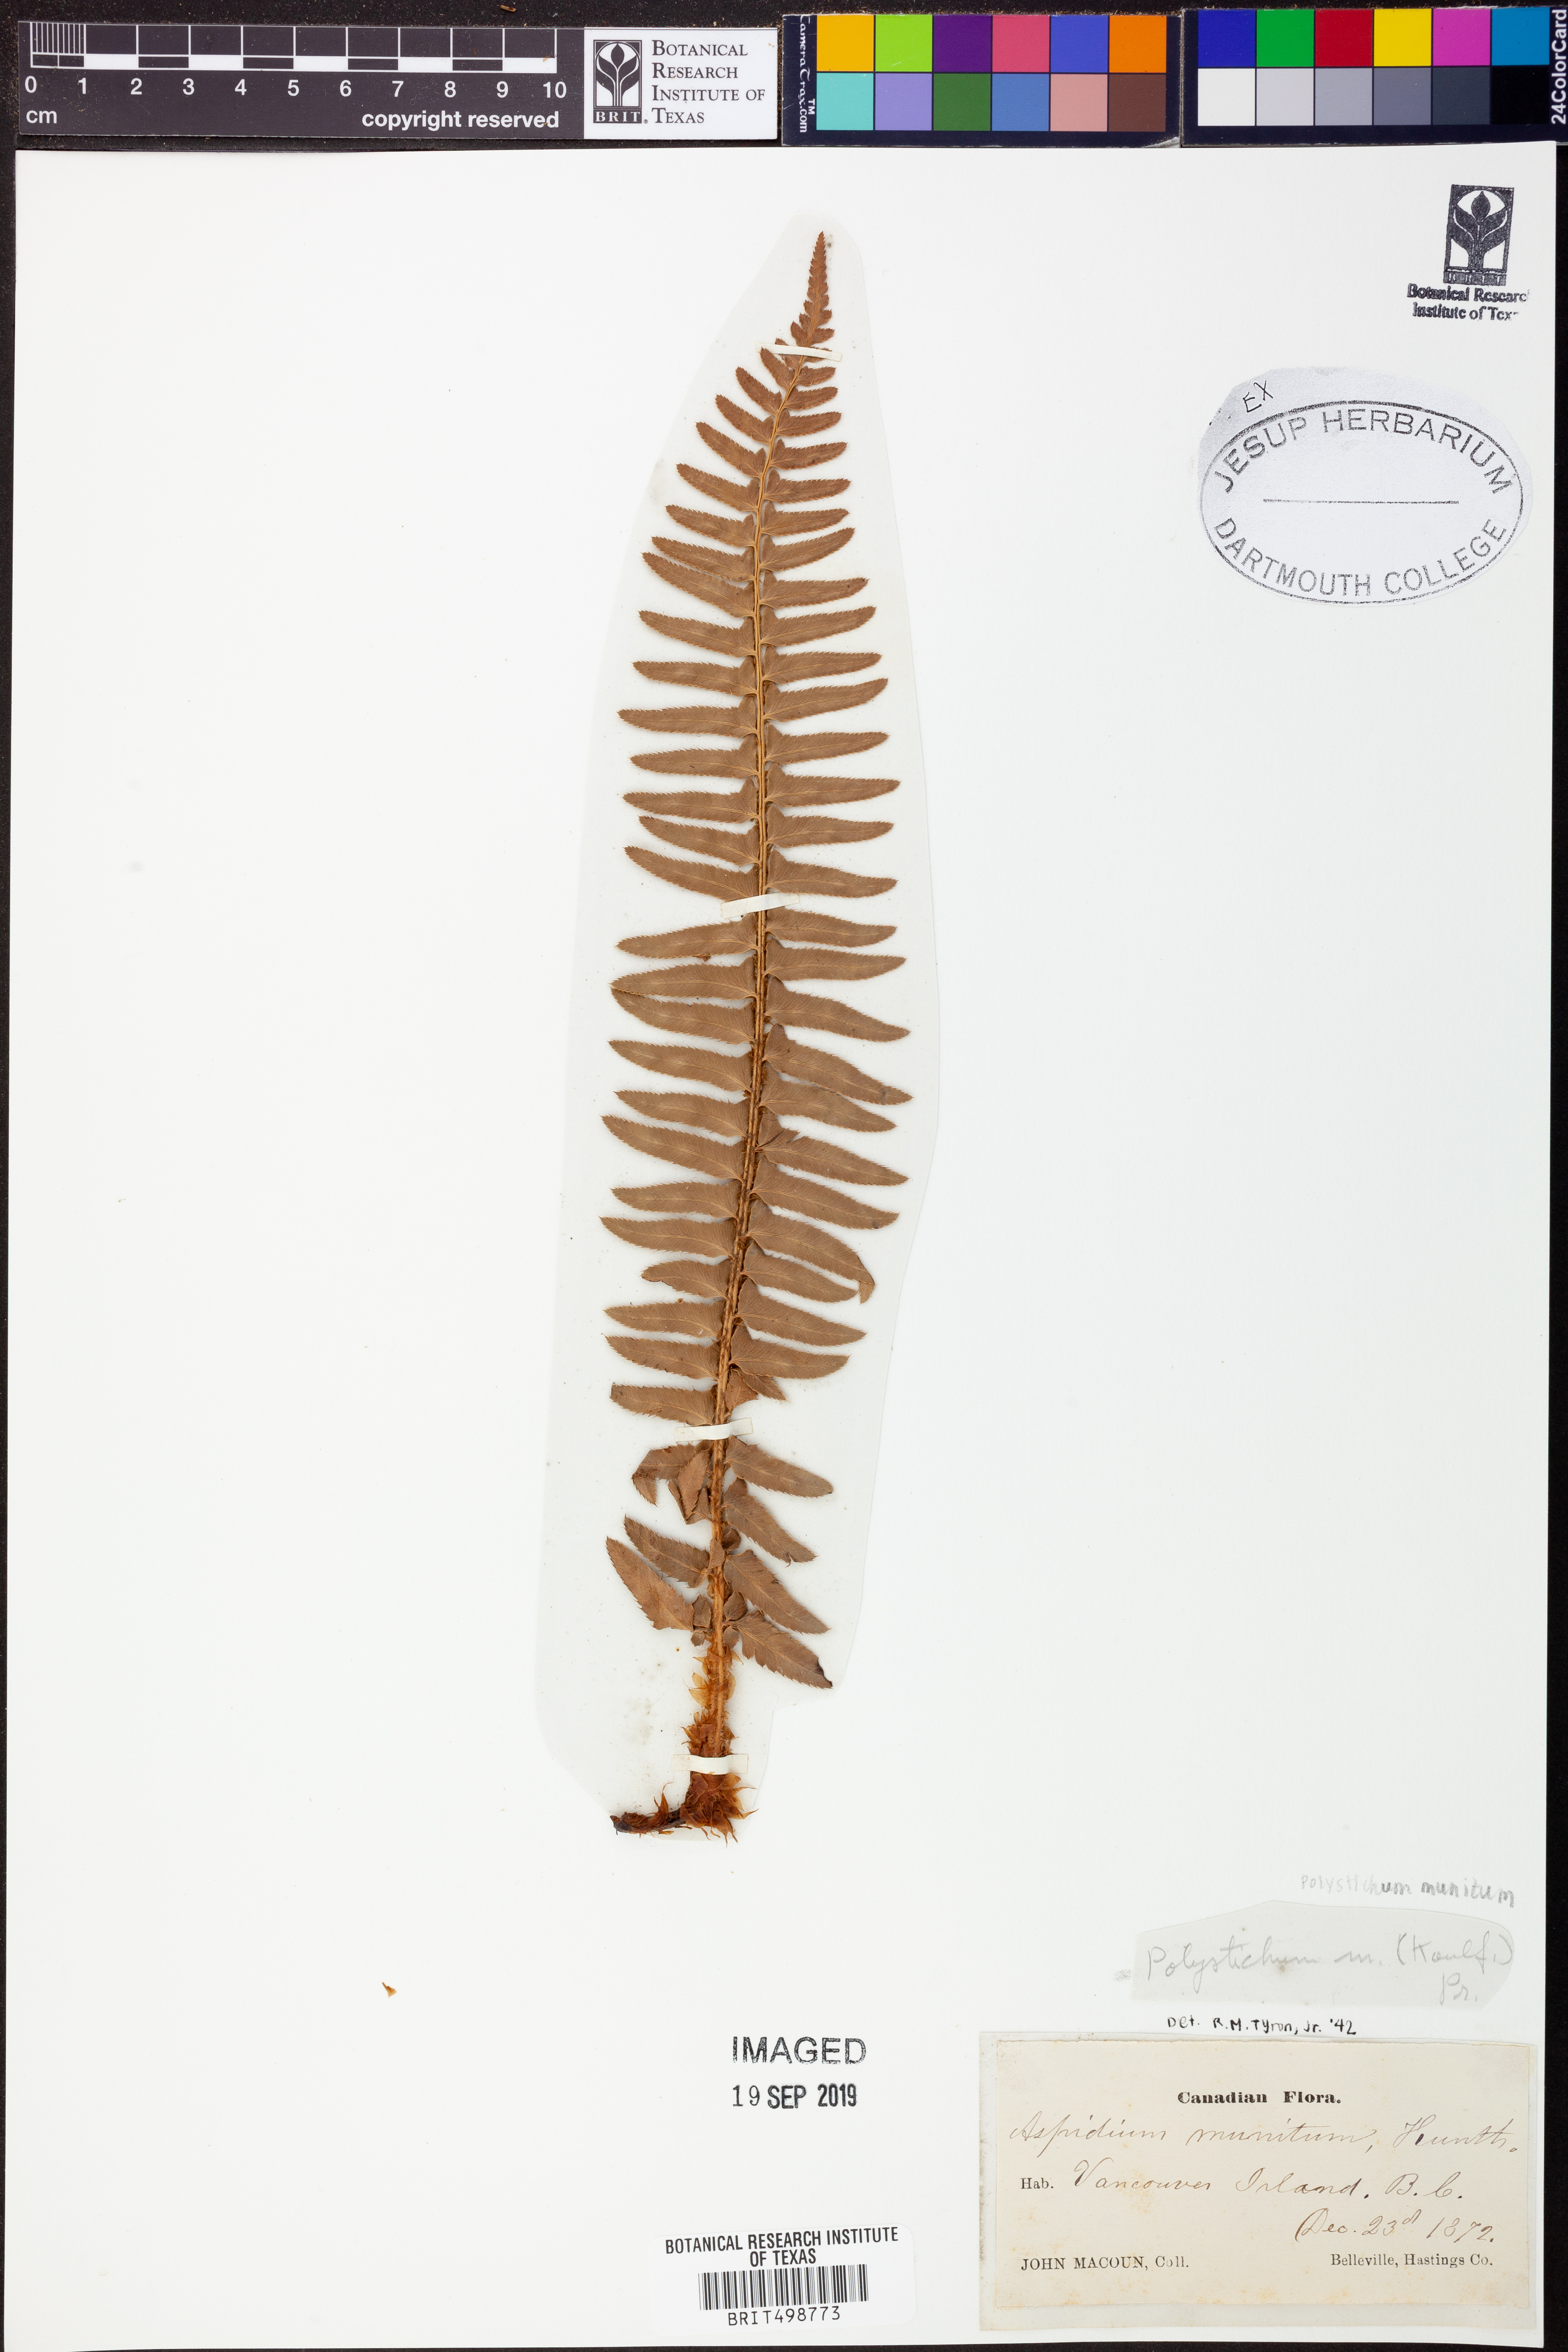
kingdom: Plantae
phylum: Tracheophyta
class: Polypodiopsida
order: Polypodiales
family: Dryopteridaceae
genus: Polystichum
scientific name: Polystichum munitum
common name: Western sword-fern
